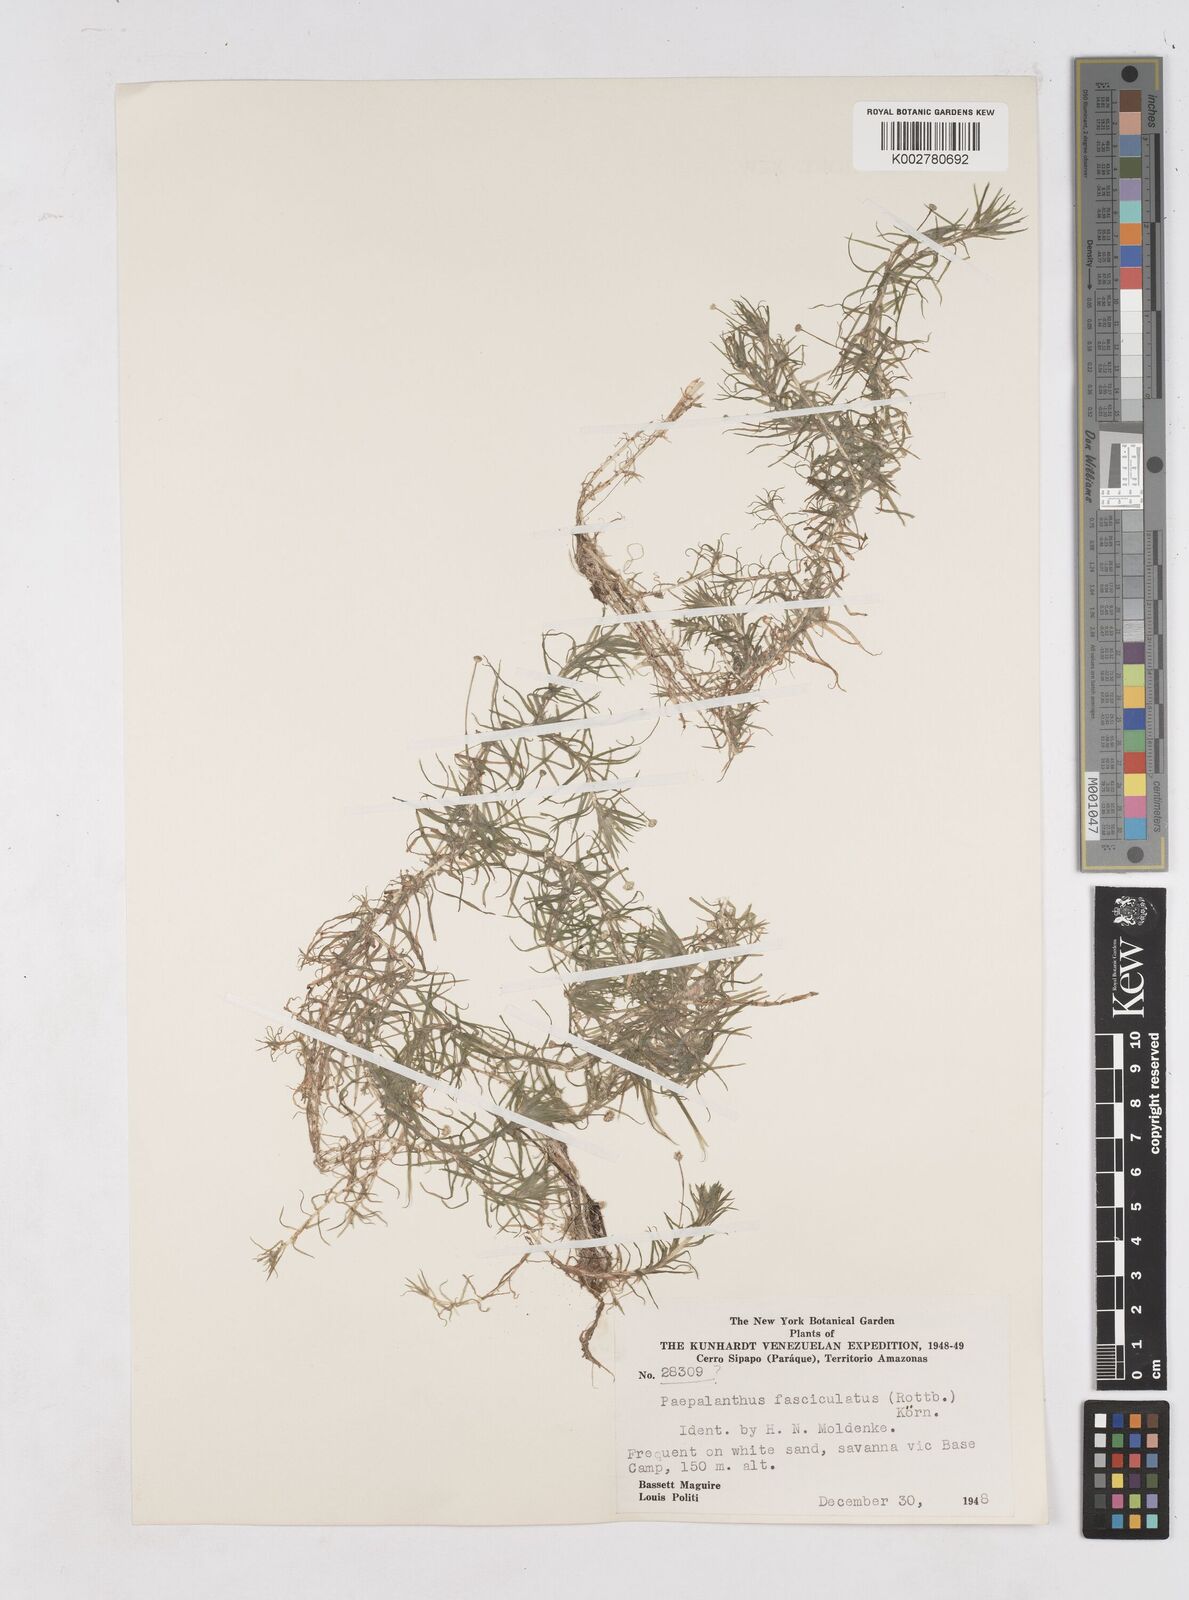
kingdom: Plantae
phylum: Tracheophyta
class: Liliopsida
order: Poales
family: Eriocaulaceae
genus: Paepalanthus
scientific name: Paepalanthus fasciculatus
